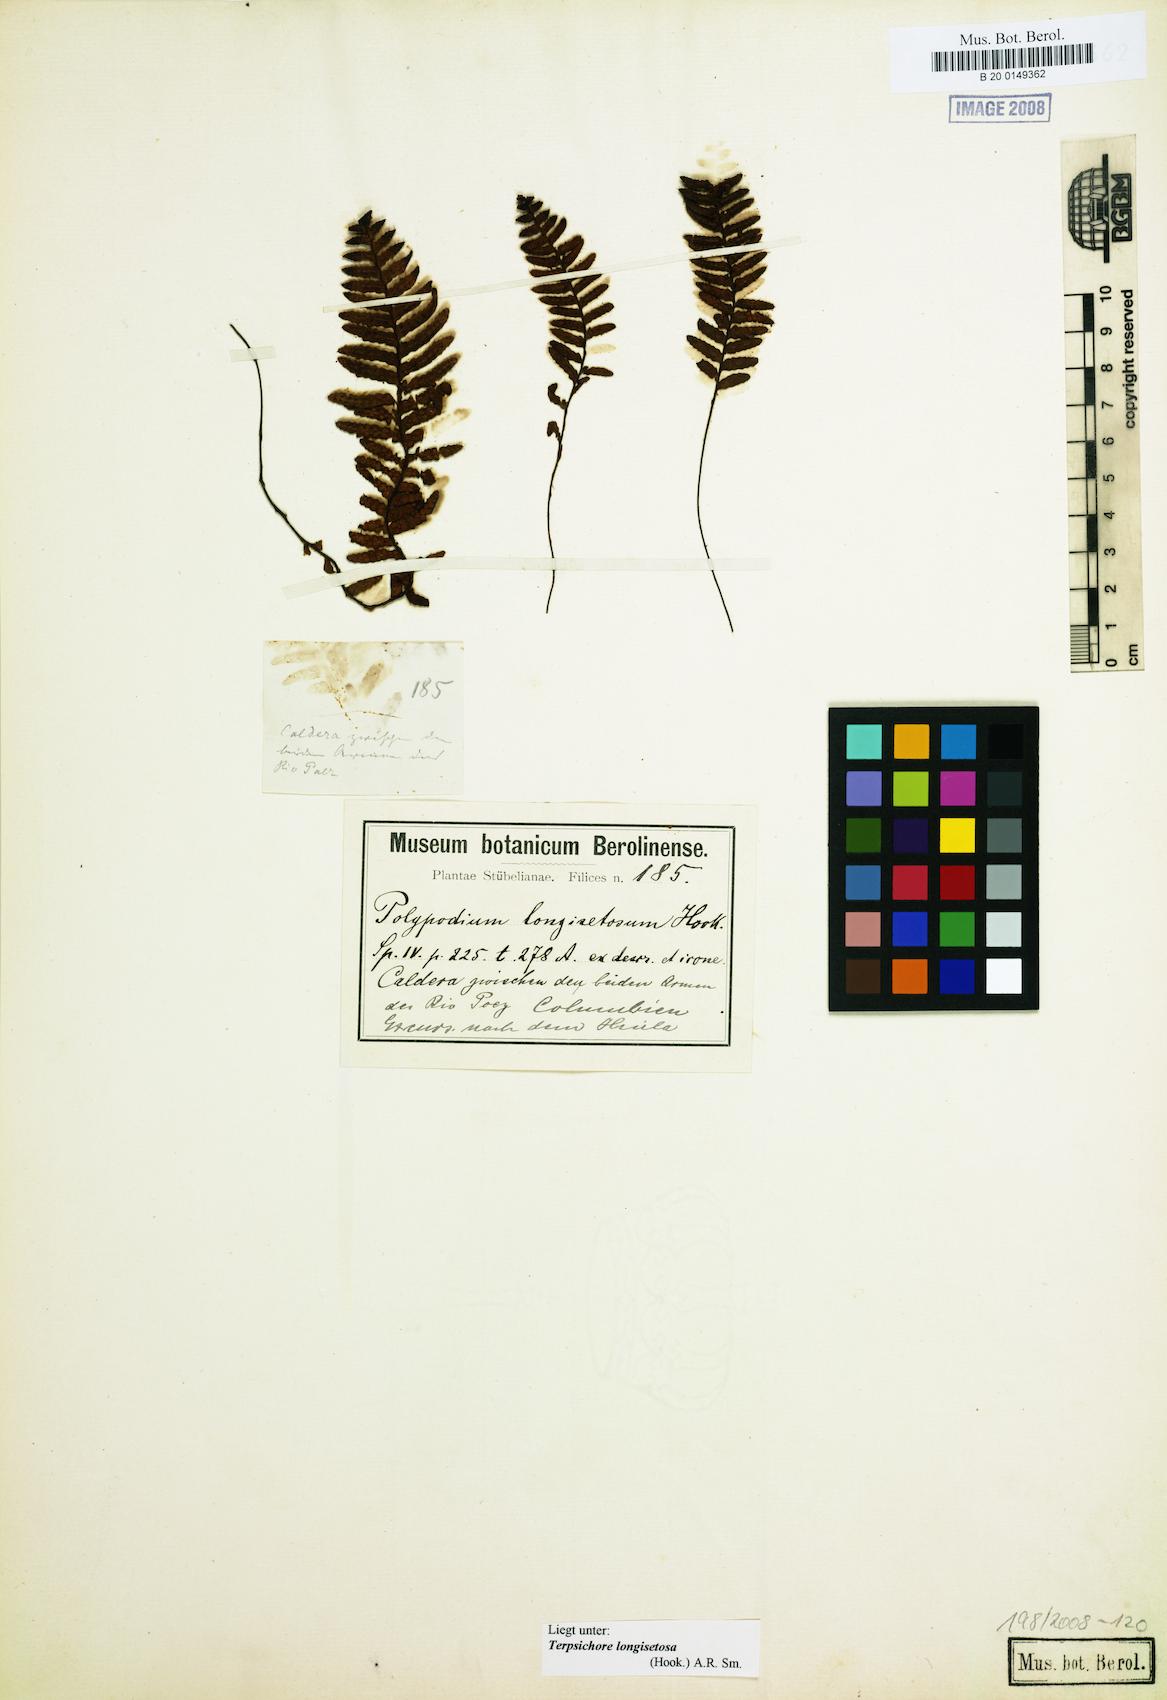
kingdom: Plantae
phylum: Tracheophyta
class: Polypodiopsida
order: Polypodiales
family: Polypodiaceae
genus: Moranopteris
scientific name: Moranopteris longisetosa
